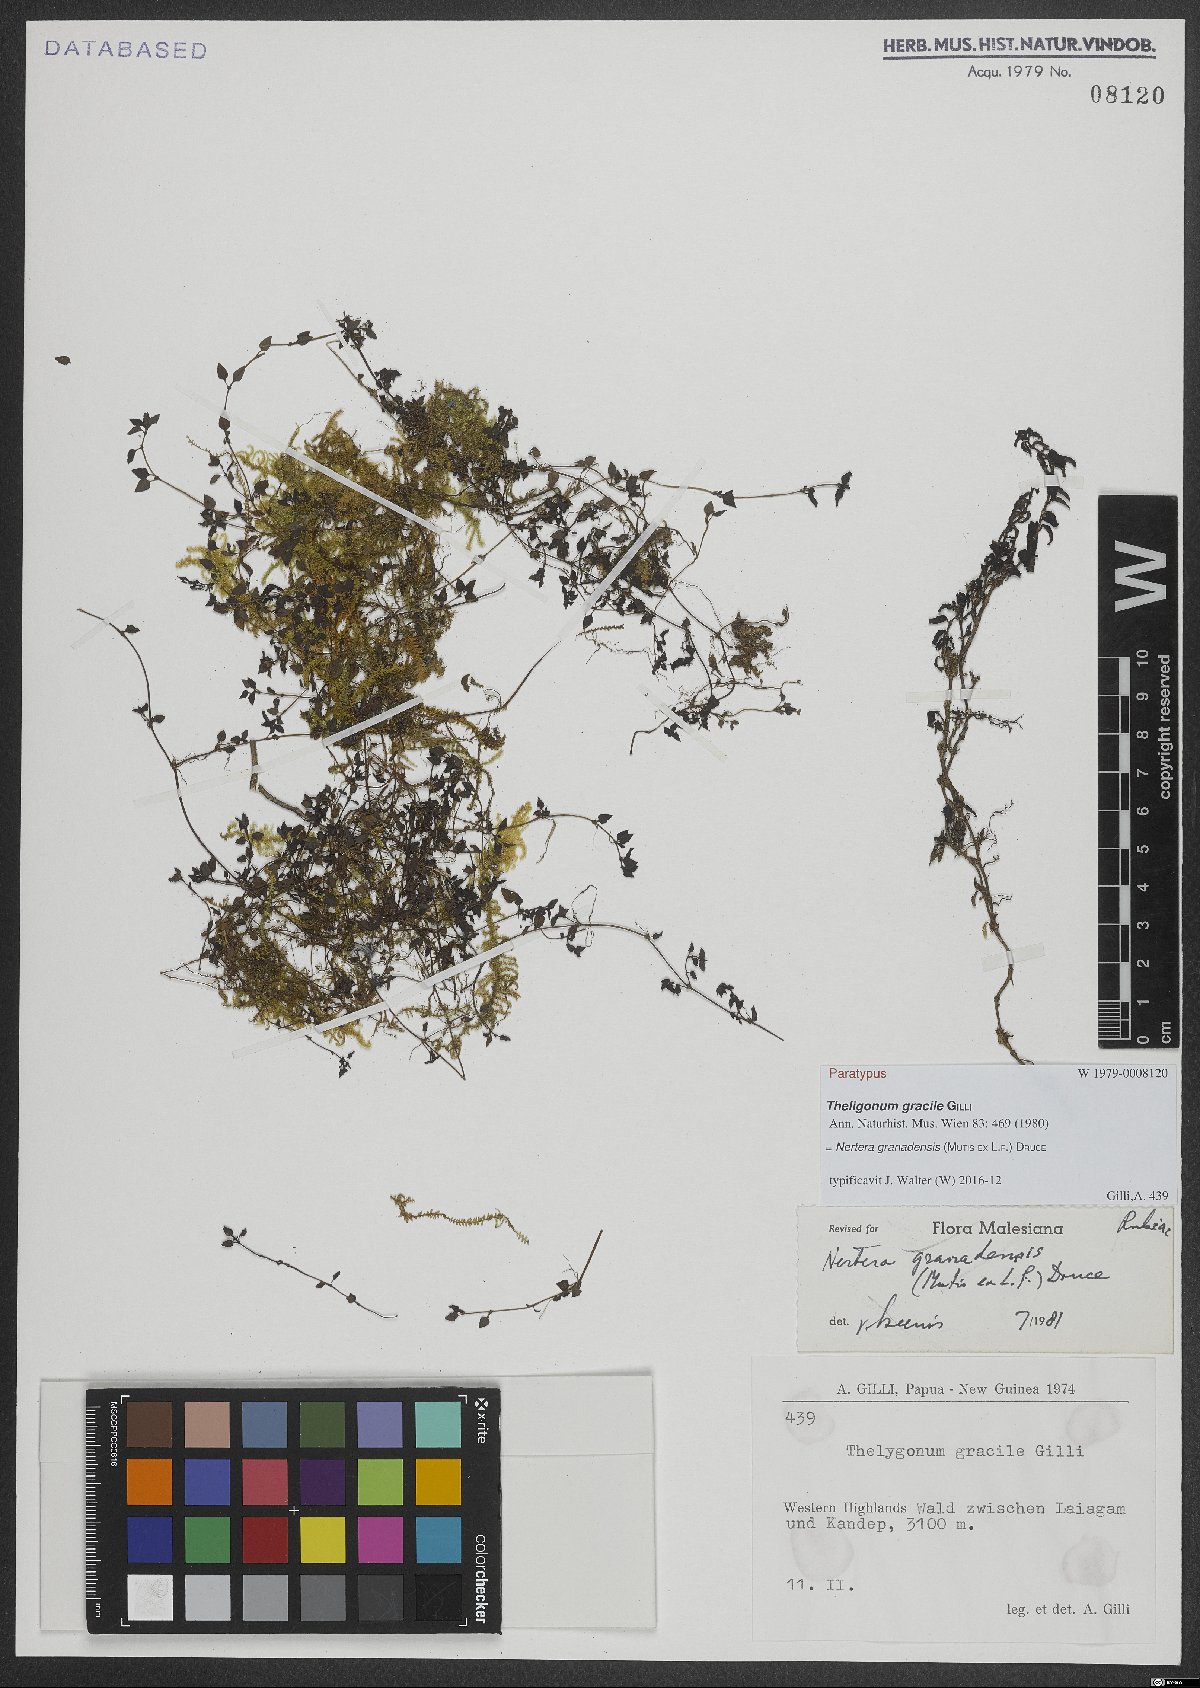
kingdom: Plantae
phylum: Tracheophyta
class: Magnoliopsida
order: Gentianales
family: Rubiaceae
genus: Nertera
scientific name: Nertera granadensis
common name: Beadplant
